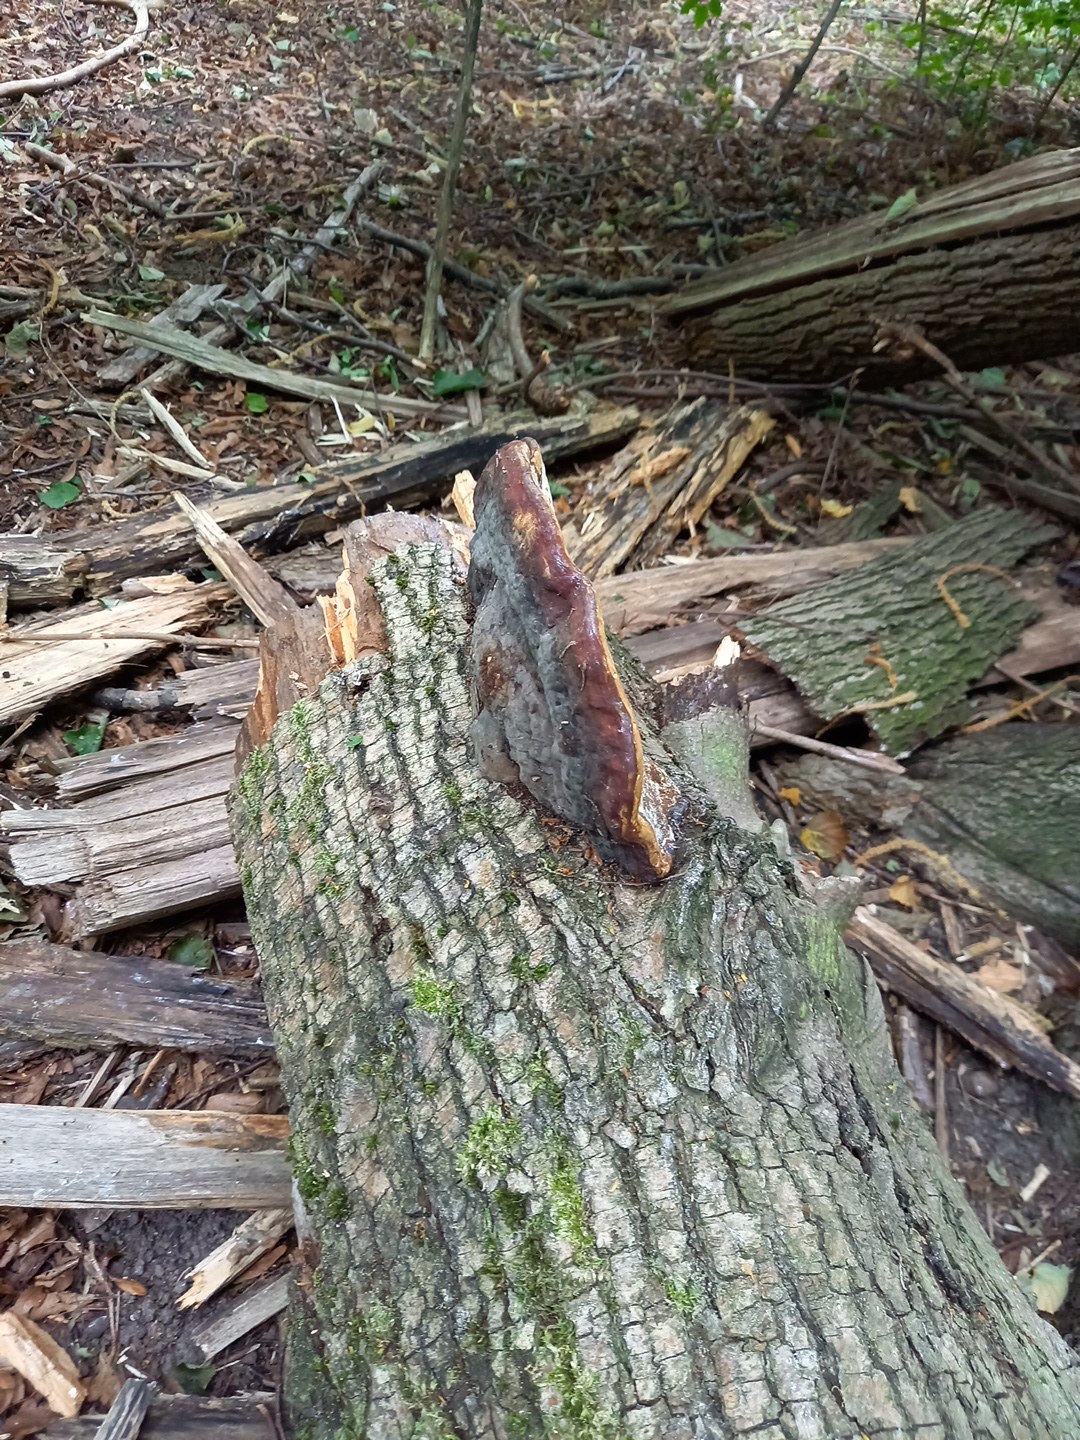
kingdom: Fungi
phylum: Basidiomycota
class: Agaricomycetes
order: Polyporales
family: Fomitopsidaceae
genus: Fomitopsis
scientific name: Fomitopsis pinicola
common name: randbæltet hovporesvamp
